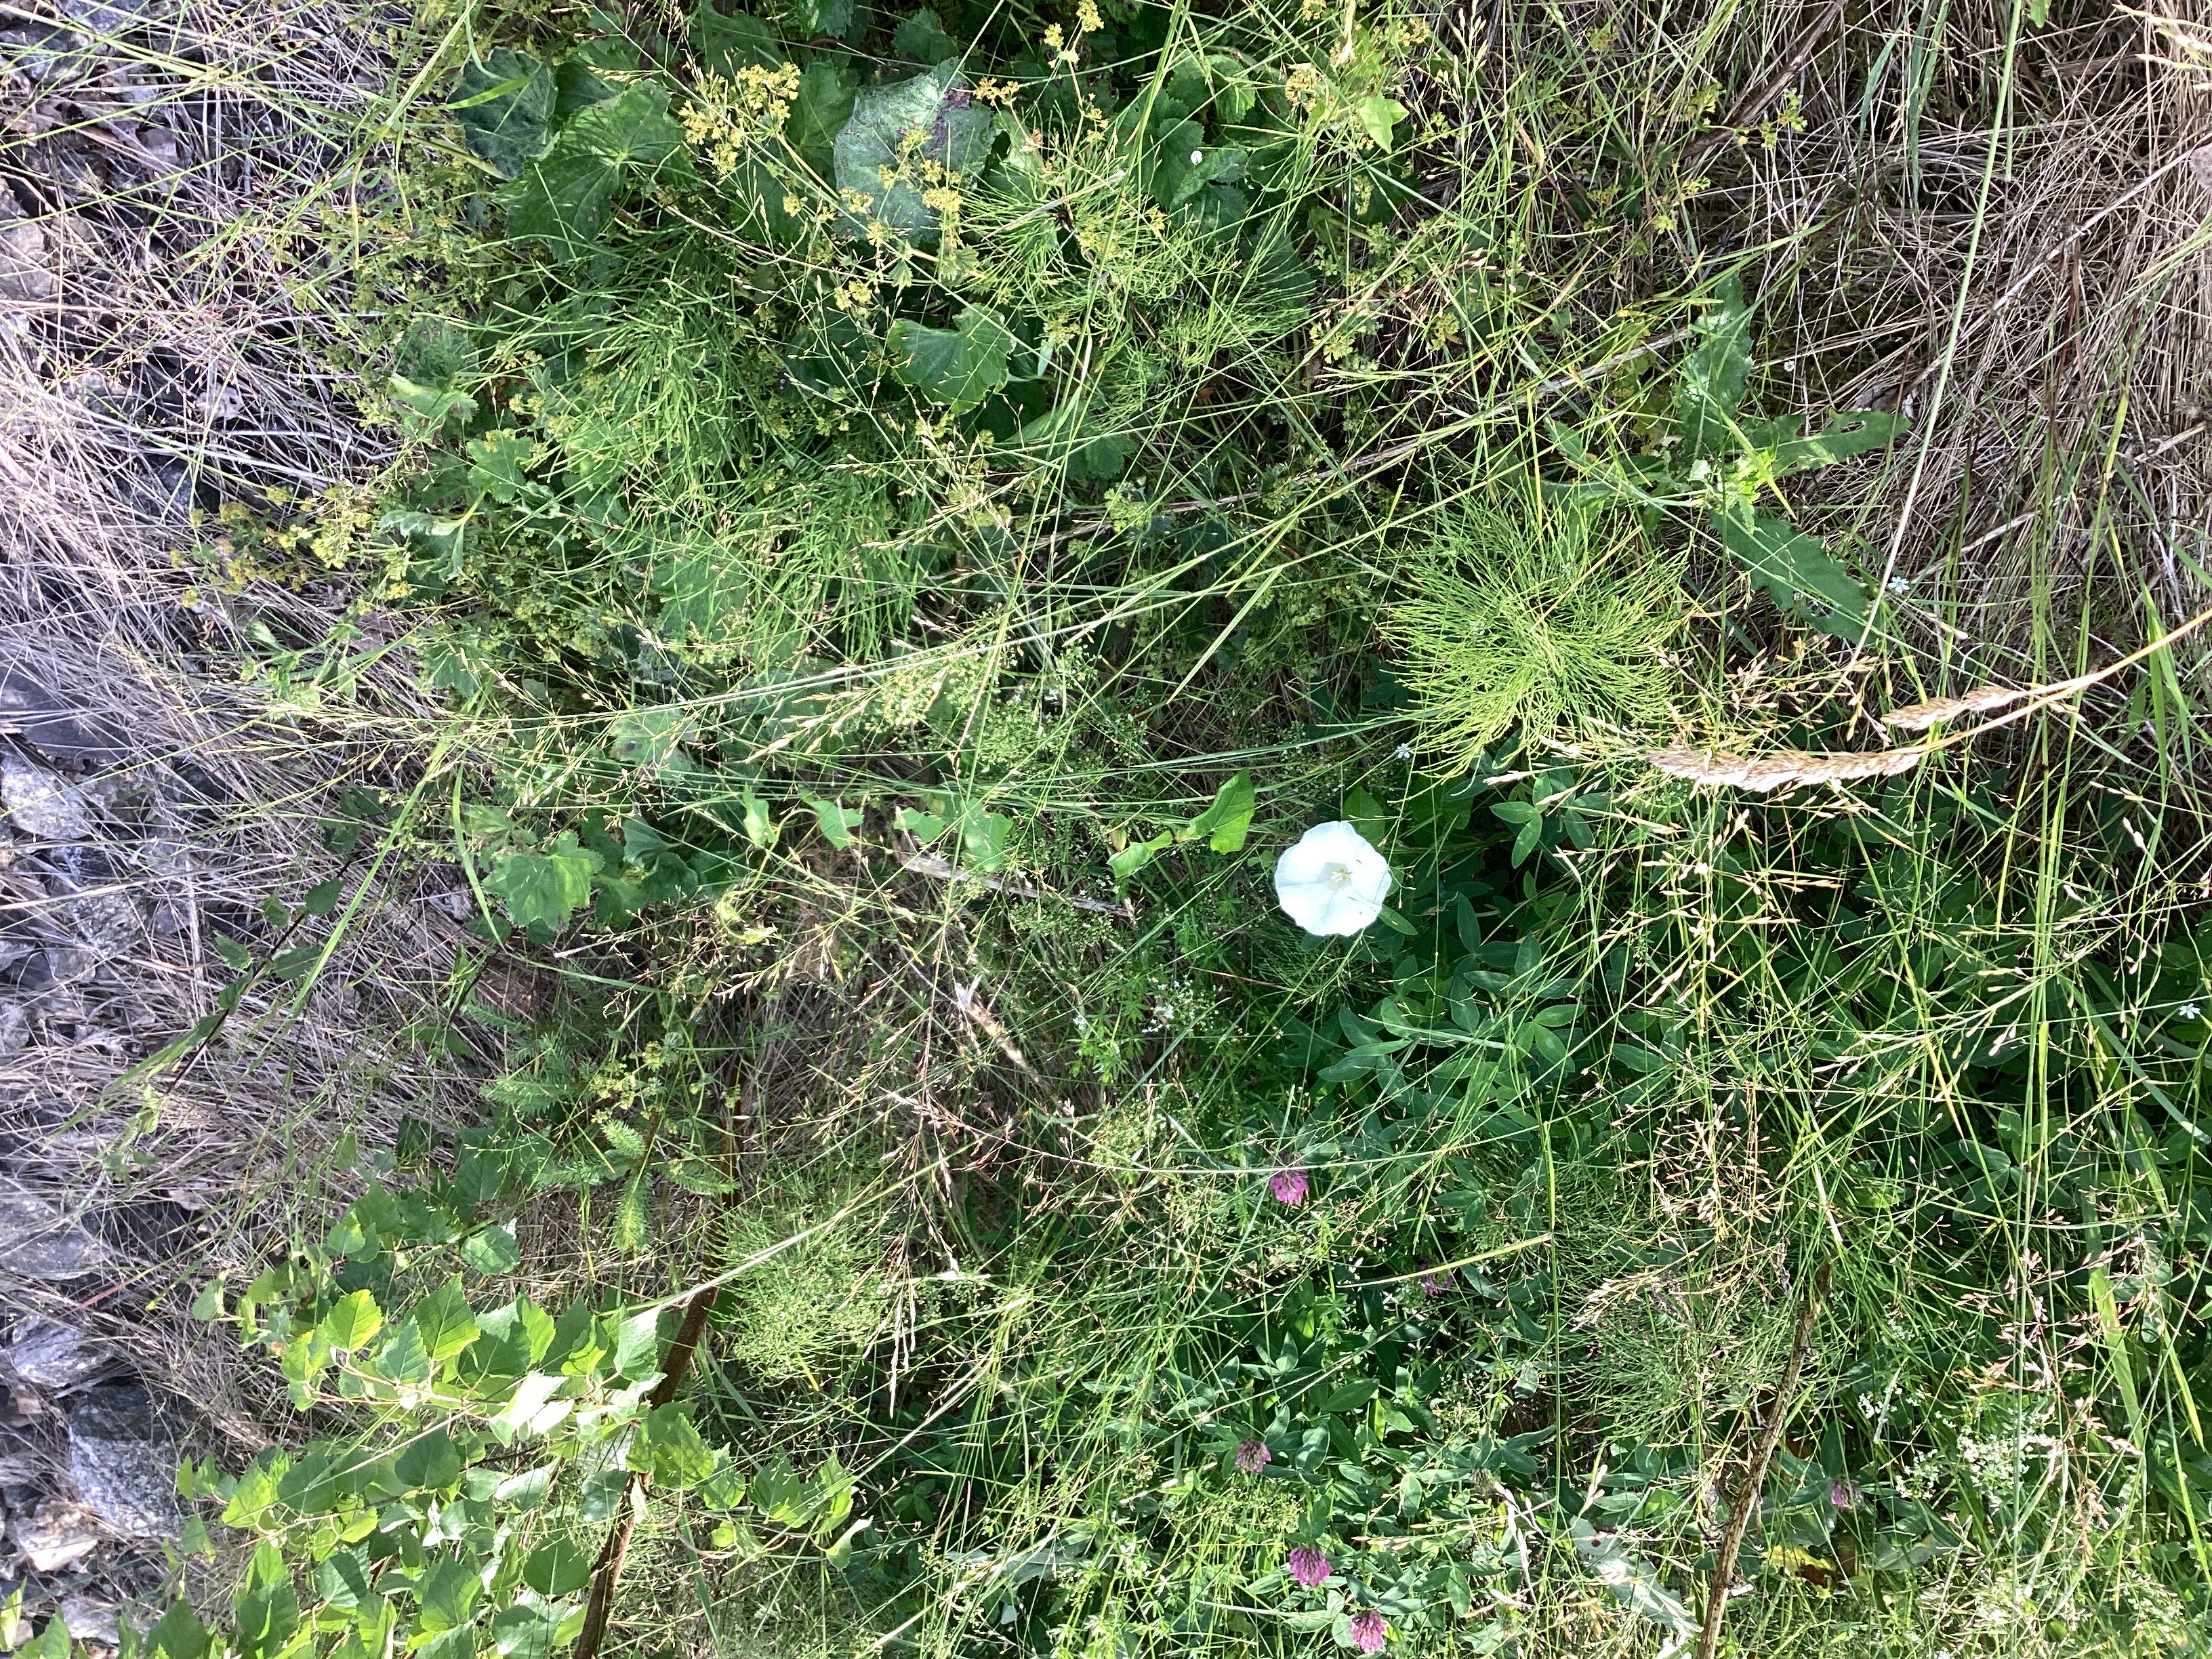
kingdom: Plantae
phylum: Tracheophyta
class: Magnoliopsida
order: Solanales
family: Convolvulaceae
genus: Calystegia
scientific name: Calystegia sepium
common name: prydstrandvindel
